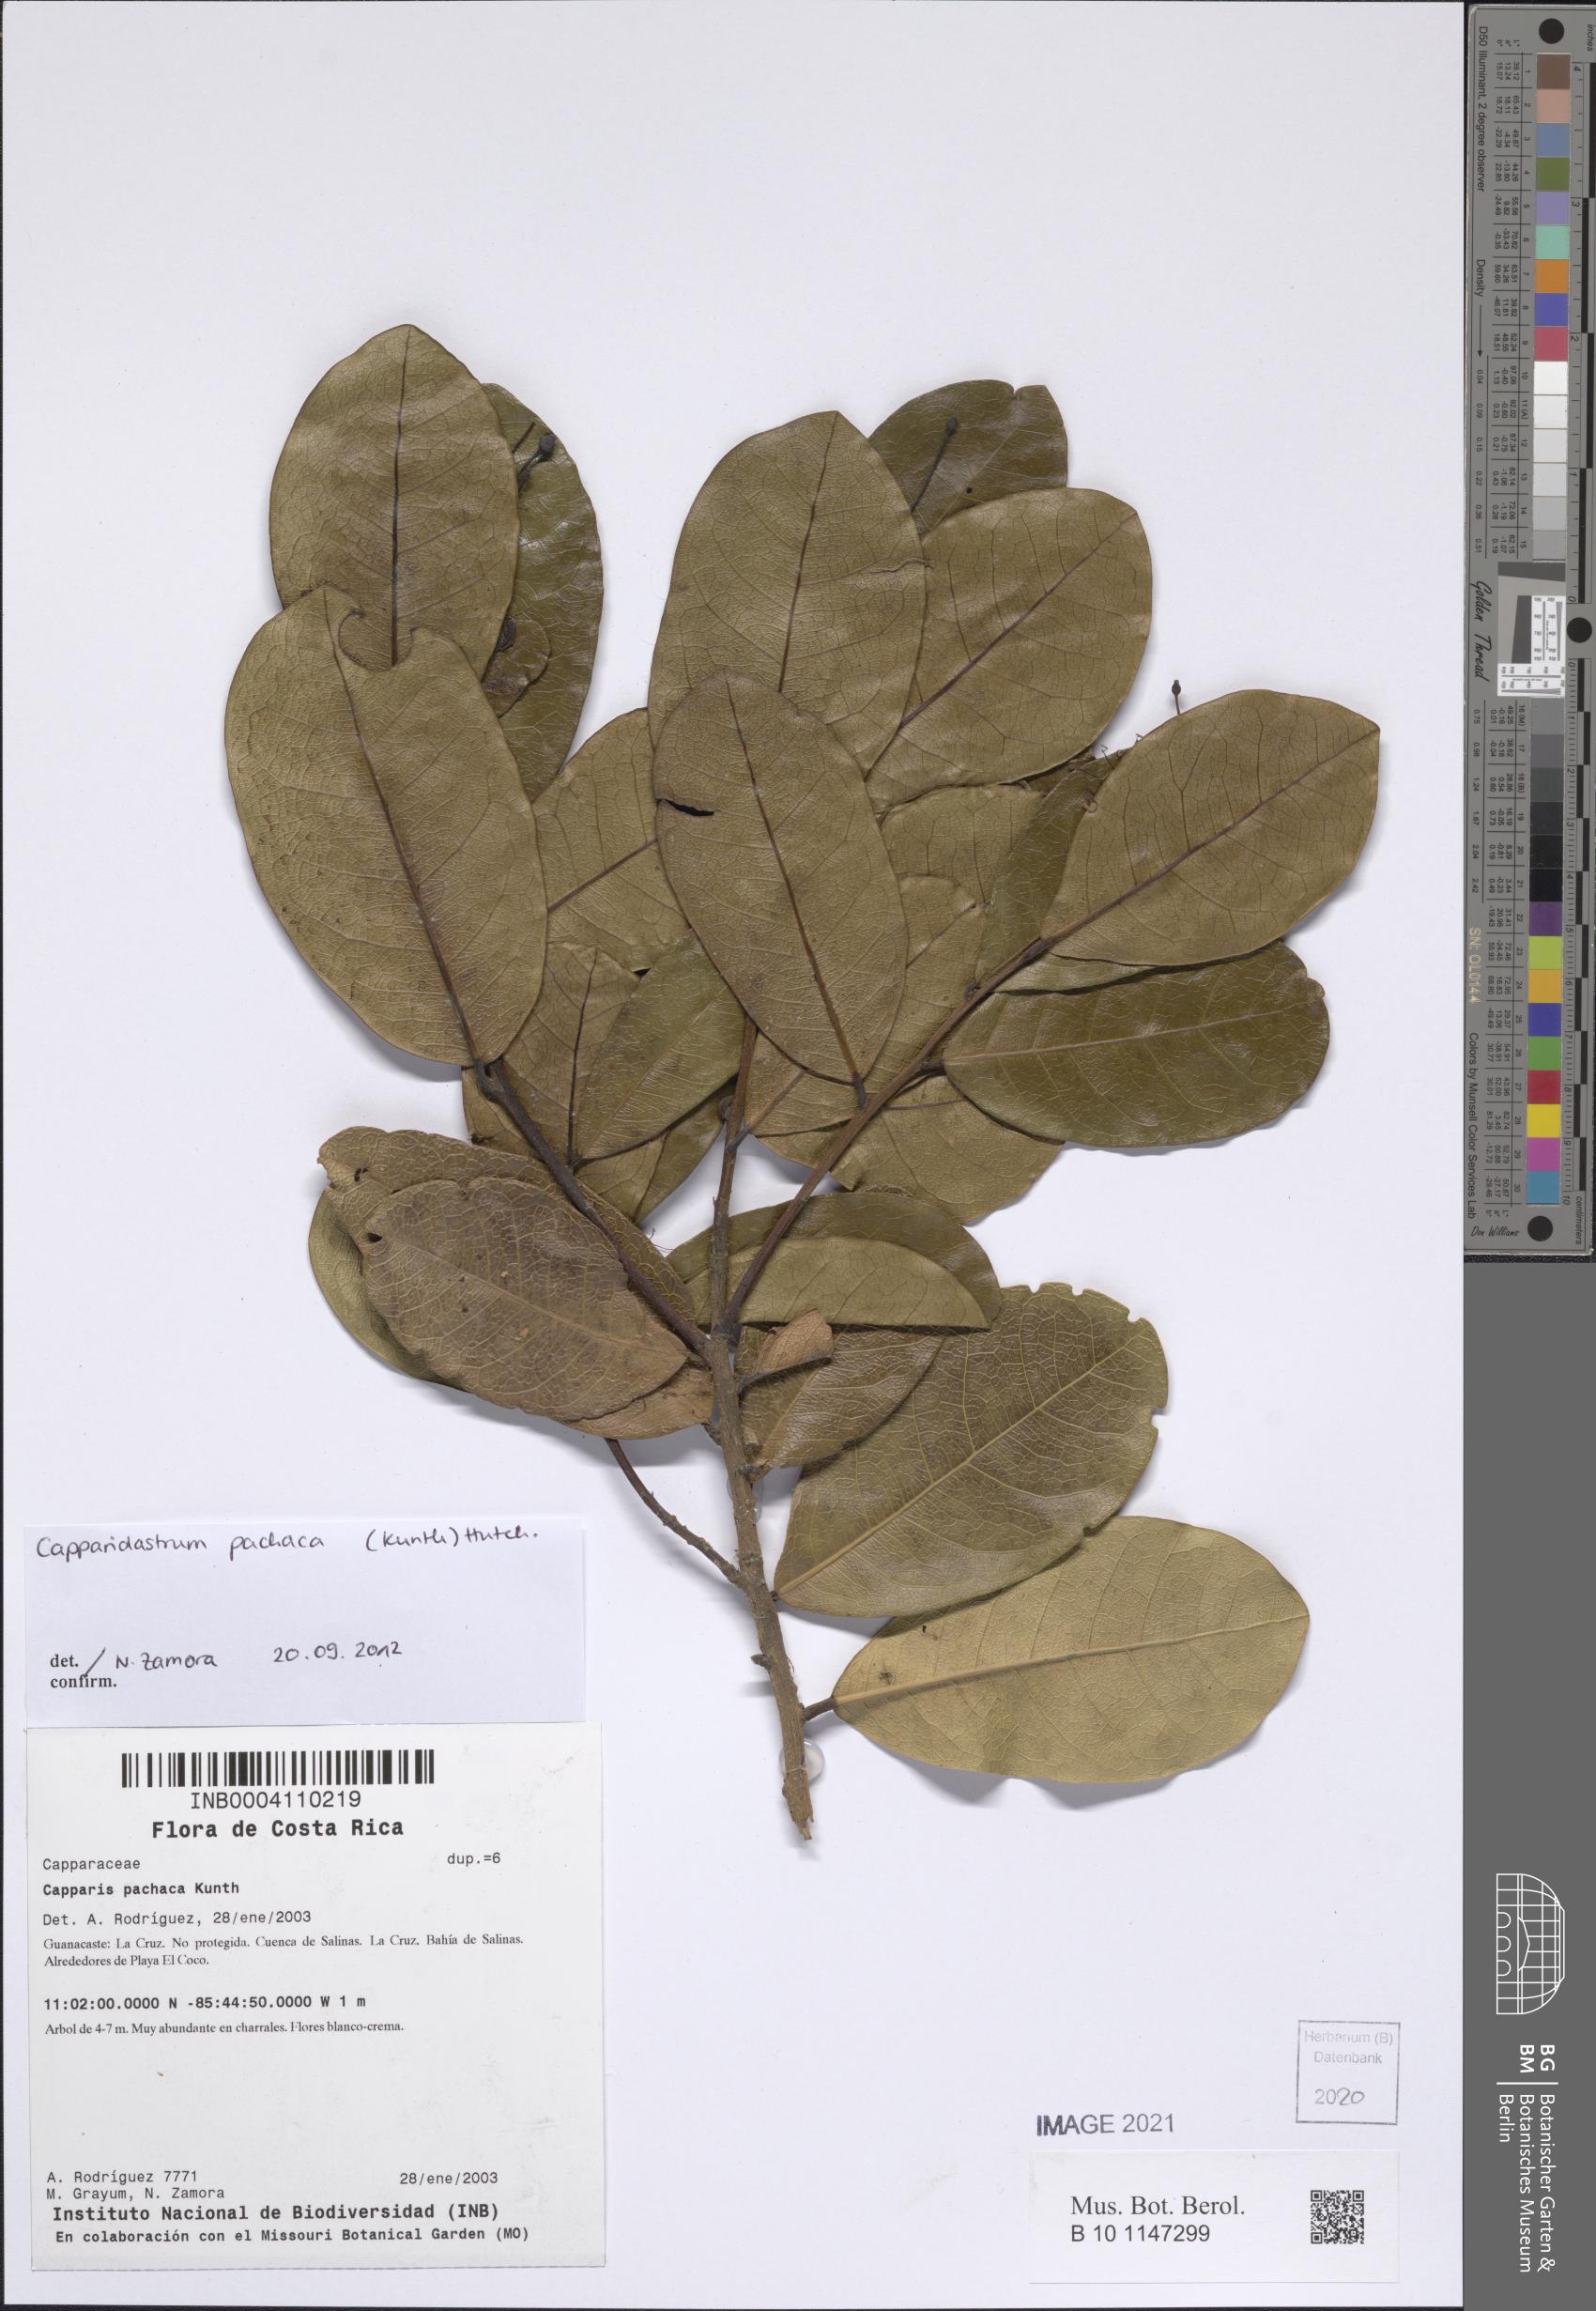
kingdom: Plantae
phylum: Tracheophyta
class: Magnoliopsida
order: Brassicales
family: Capparaceae
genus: Neocapparis
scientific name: Neocapparis pachaca
